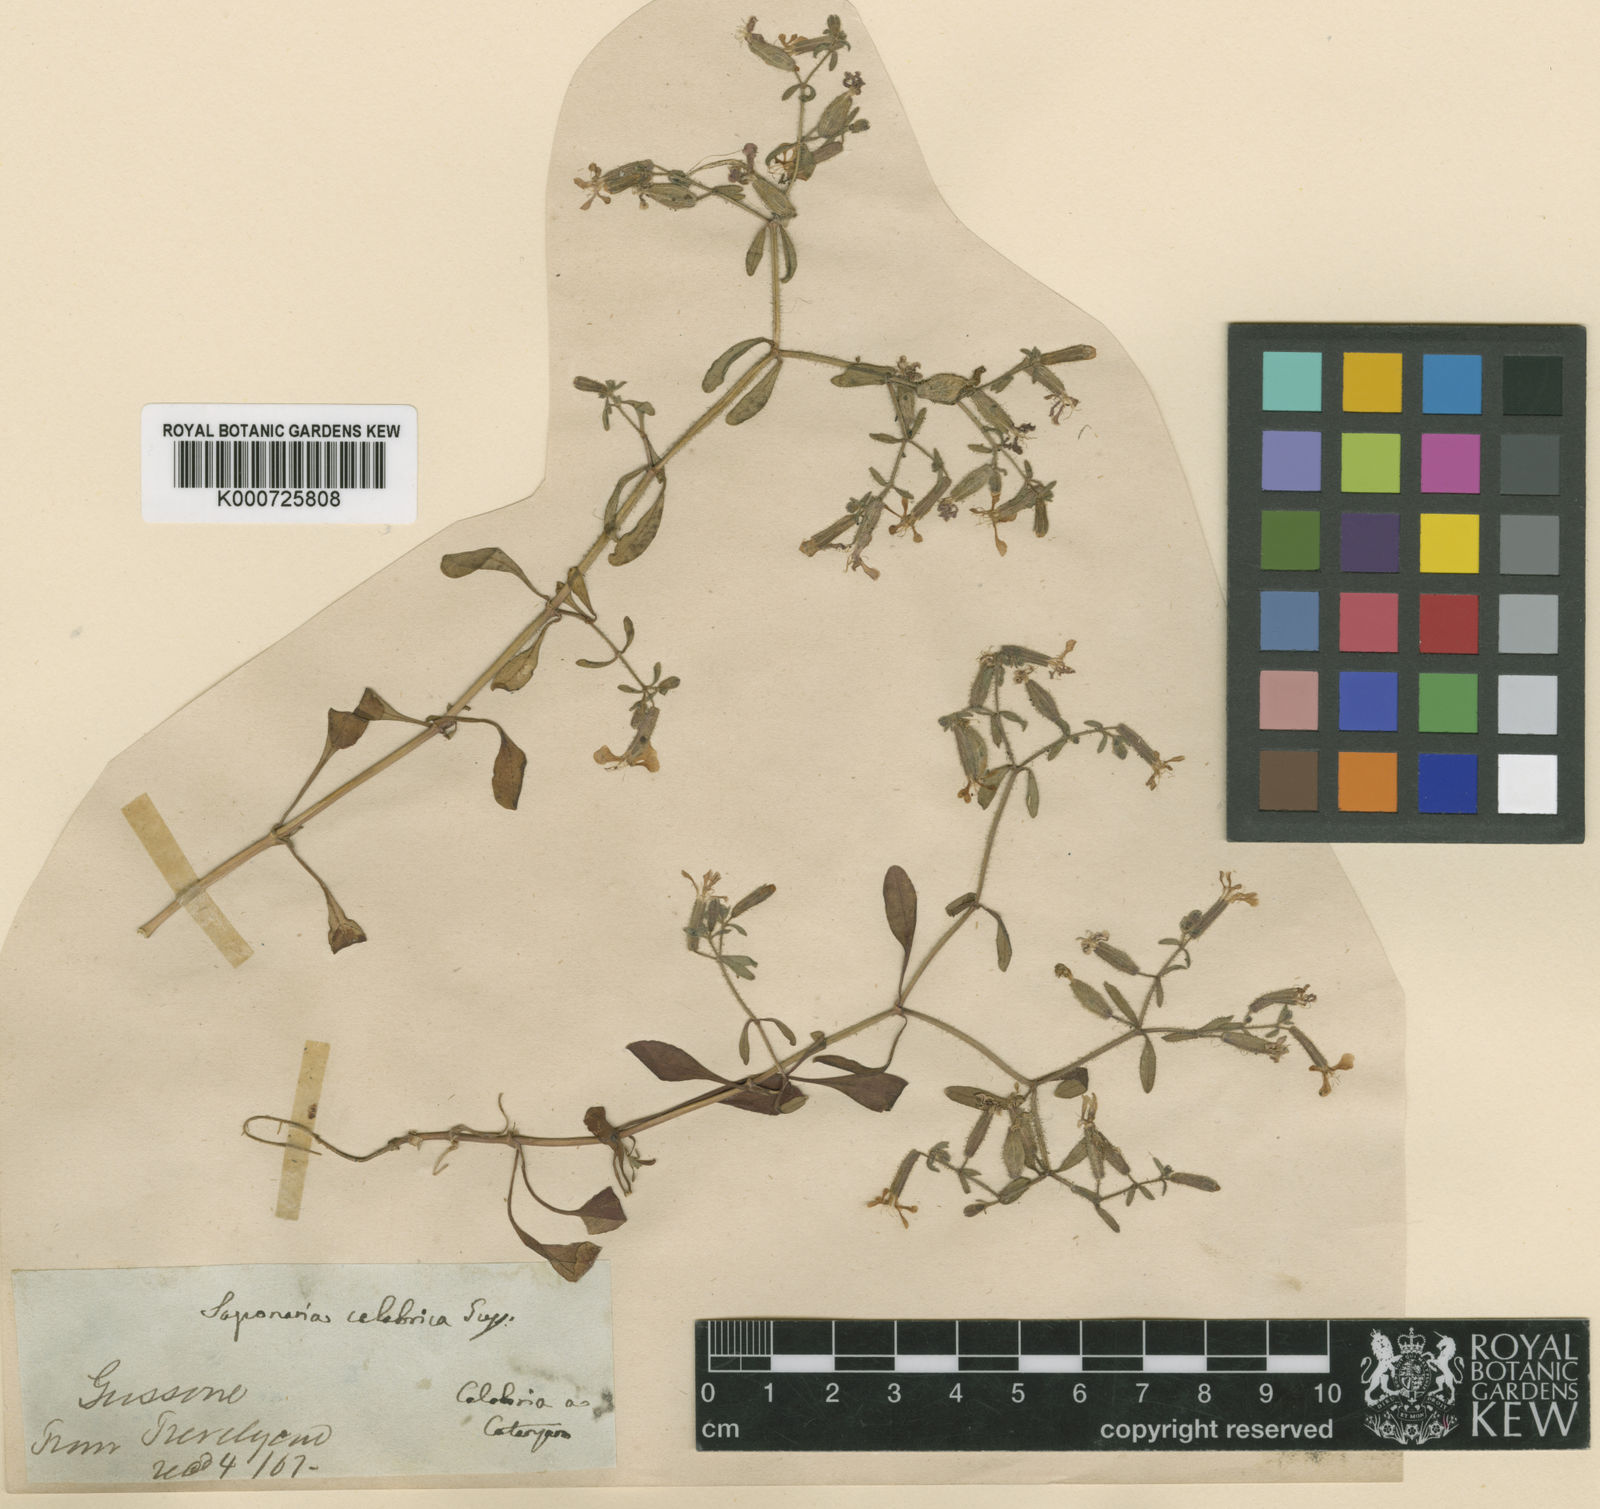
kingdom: Plantae
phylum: Tracheophyta
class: Magnoliopsida
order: Caryophyllales
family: Caryophyllaceae
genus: Saponaria
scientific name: Saponaria calabrica
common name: Adriatic soapwort
